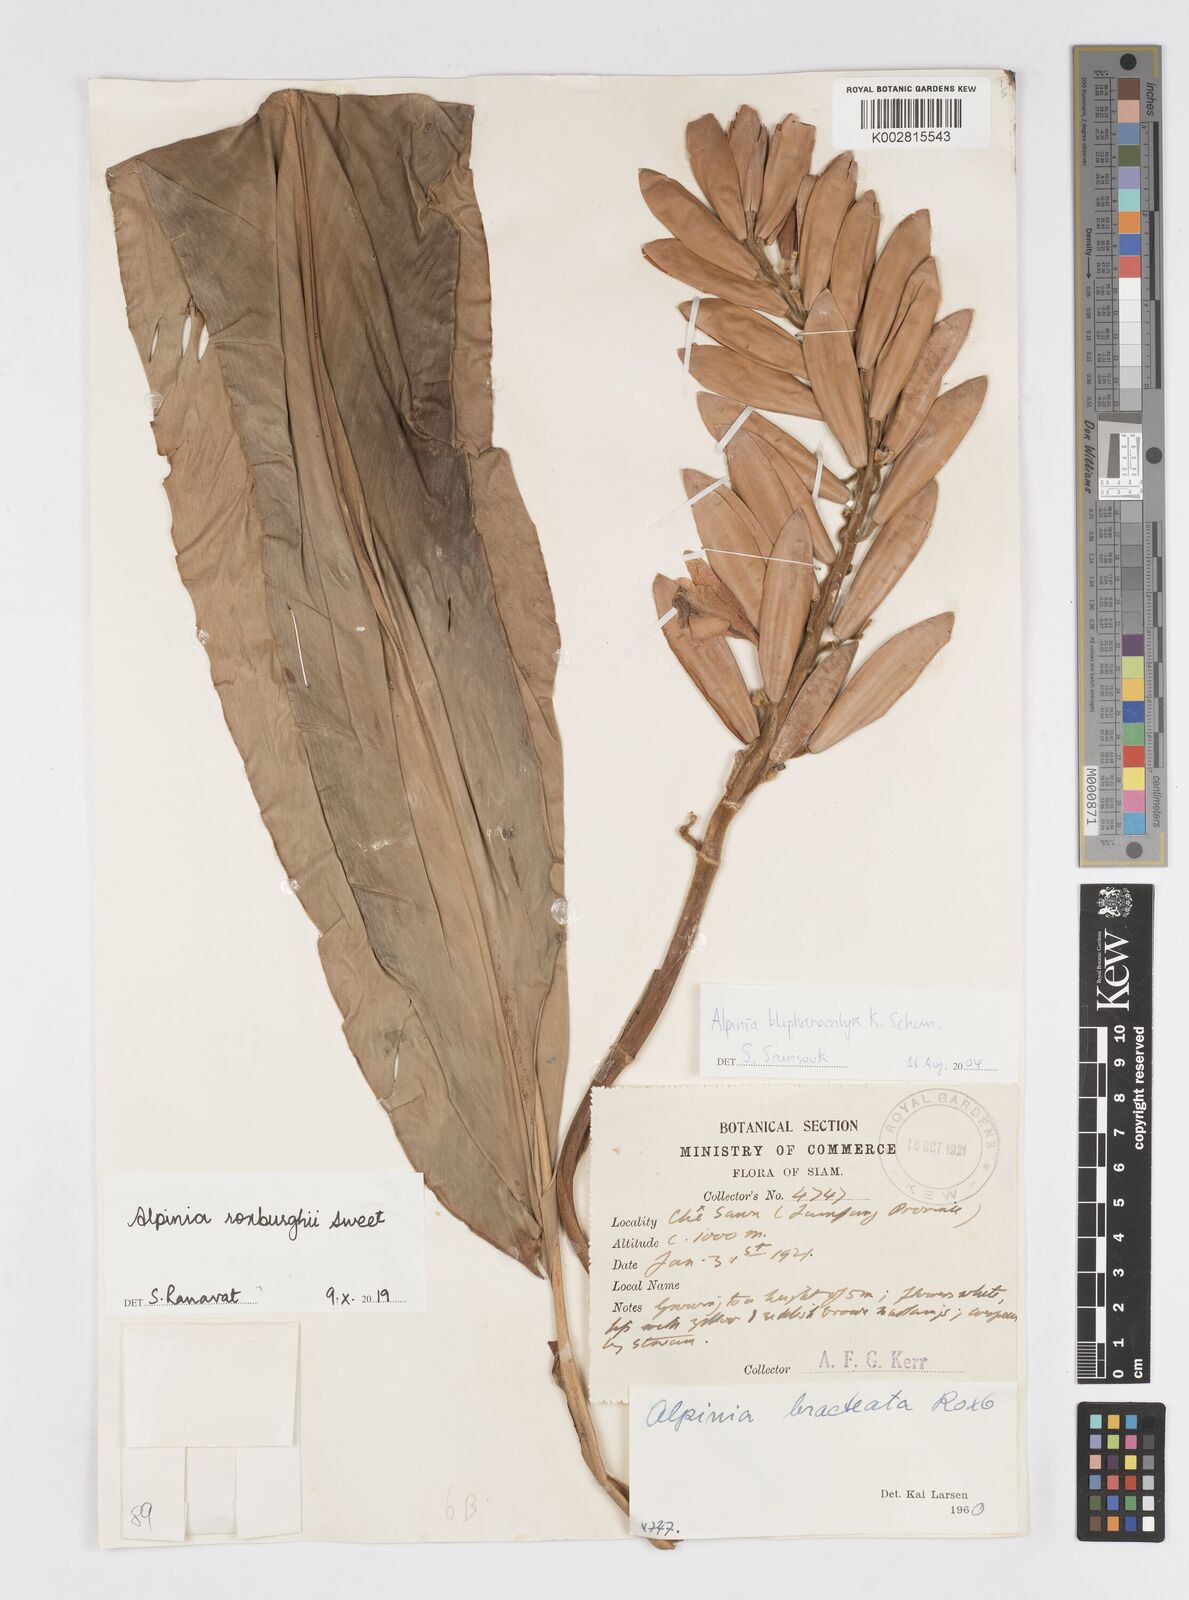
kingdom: Plantae
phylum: Tracheophyta
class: Liliopsida
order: Zingiberales
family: Zingiberaceae
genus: Alpinia
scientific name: Alpinia roxburghii
